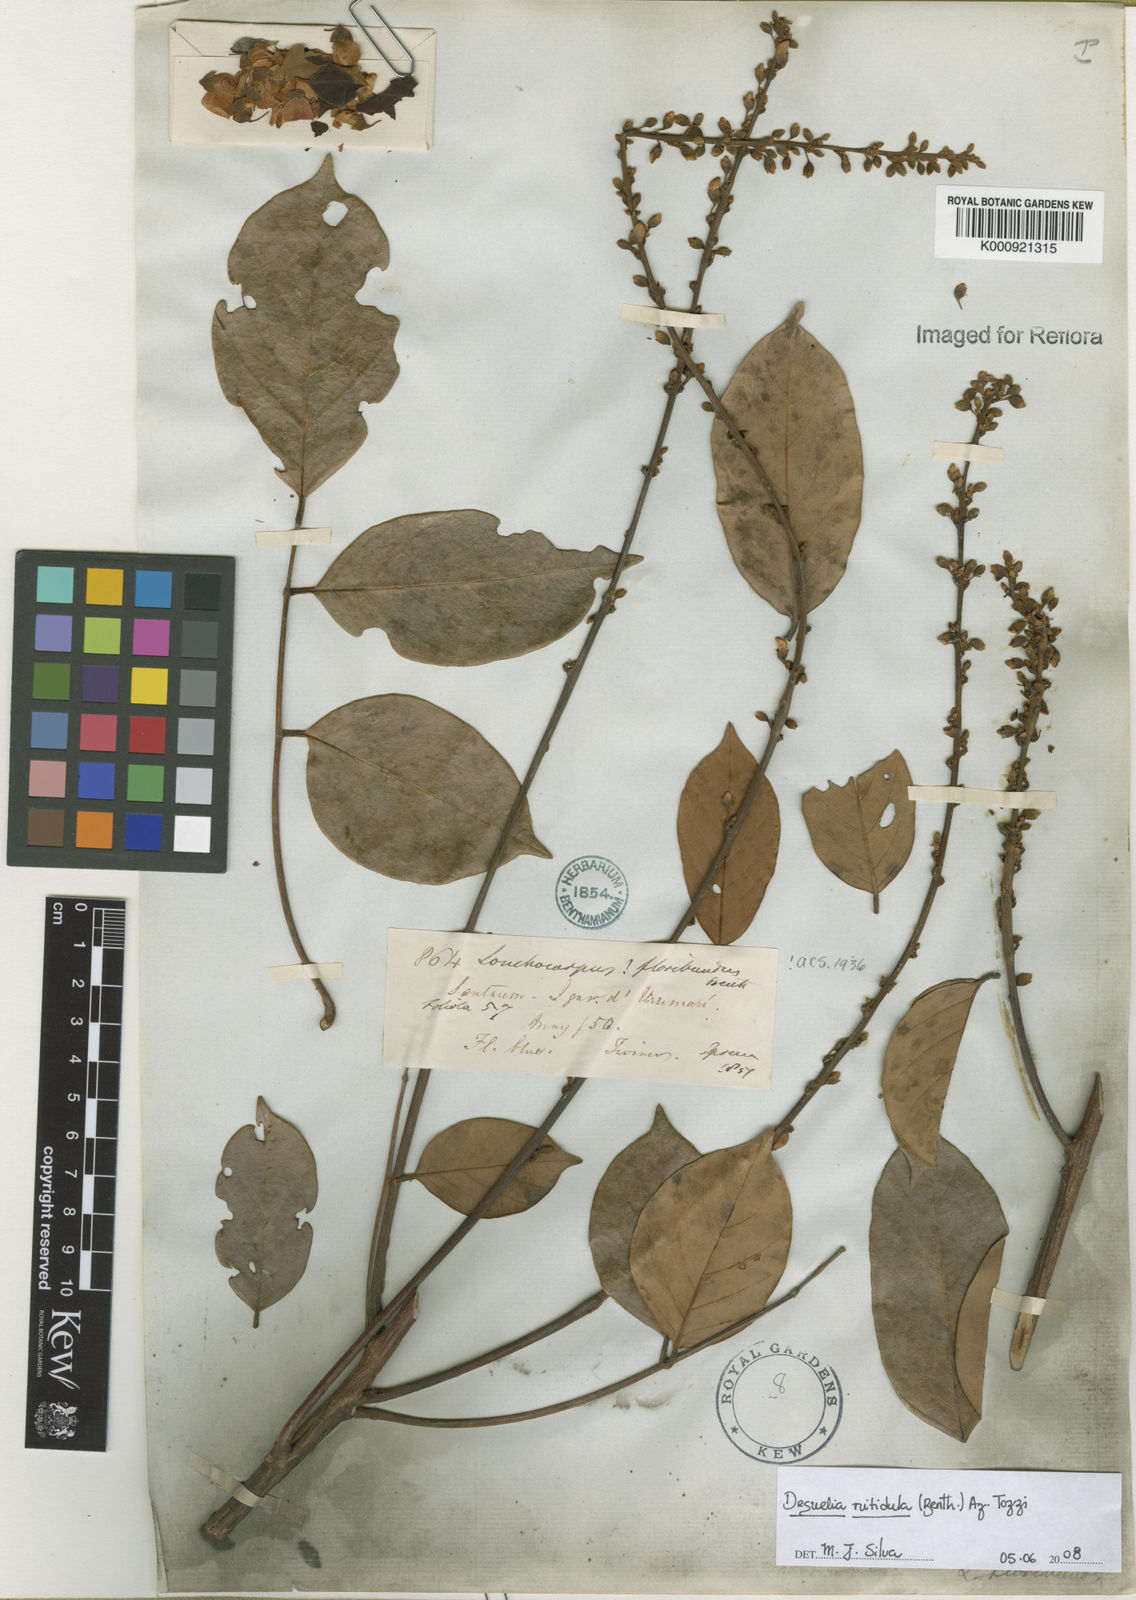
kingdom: Plantae
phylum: Tracheophyta
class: Magnoliopsida
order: Fabales
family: Fabaceae
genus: Deguelia
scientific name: Deguelia nitidula
